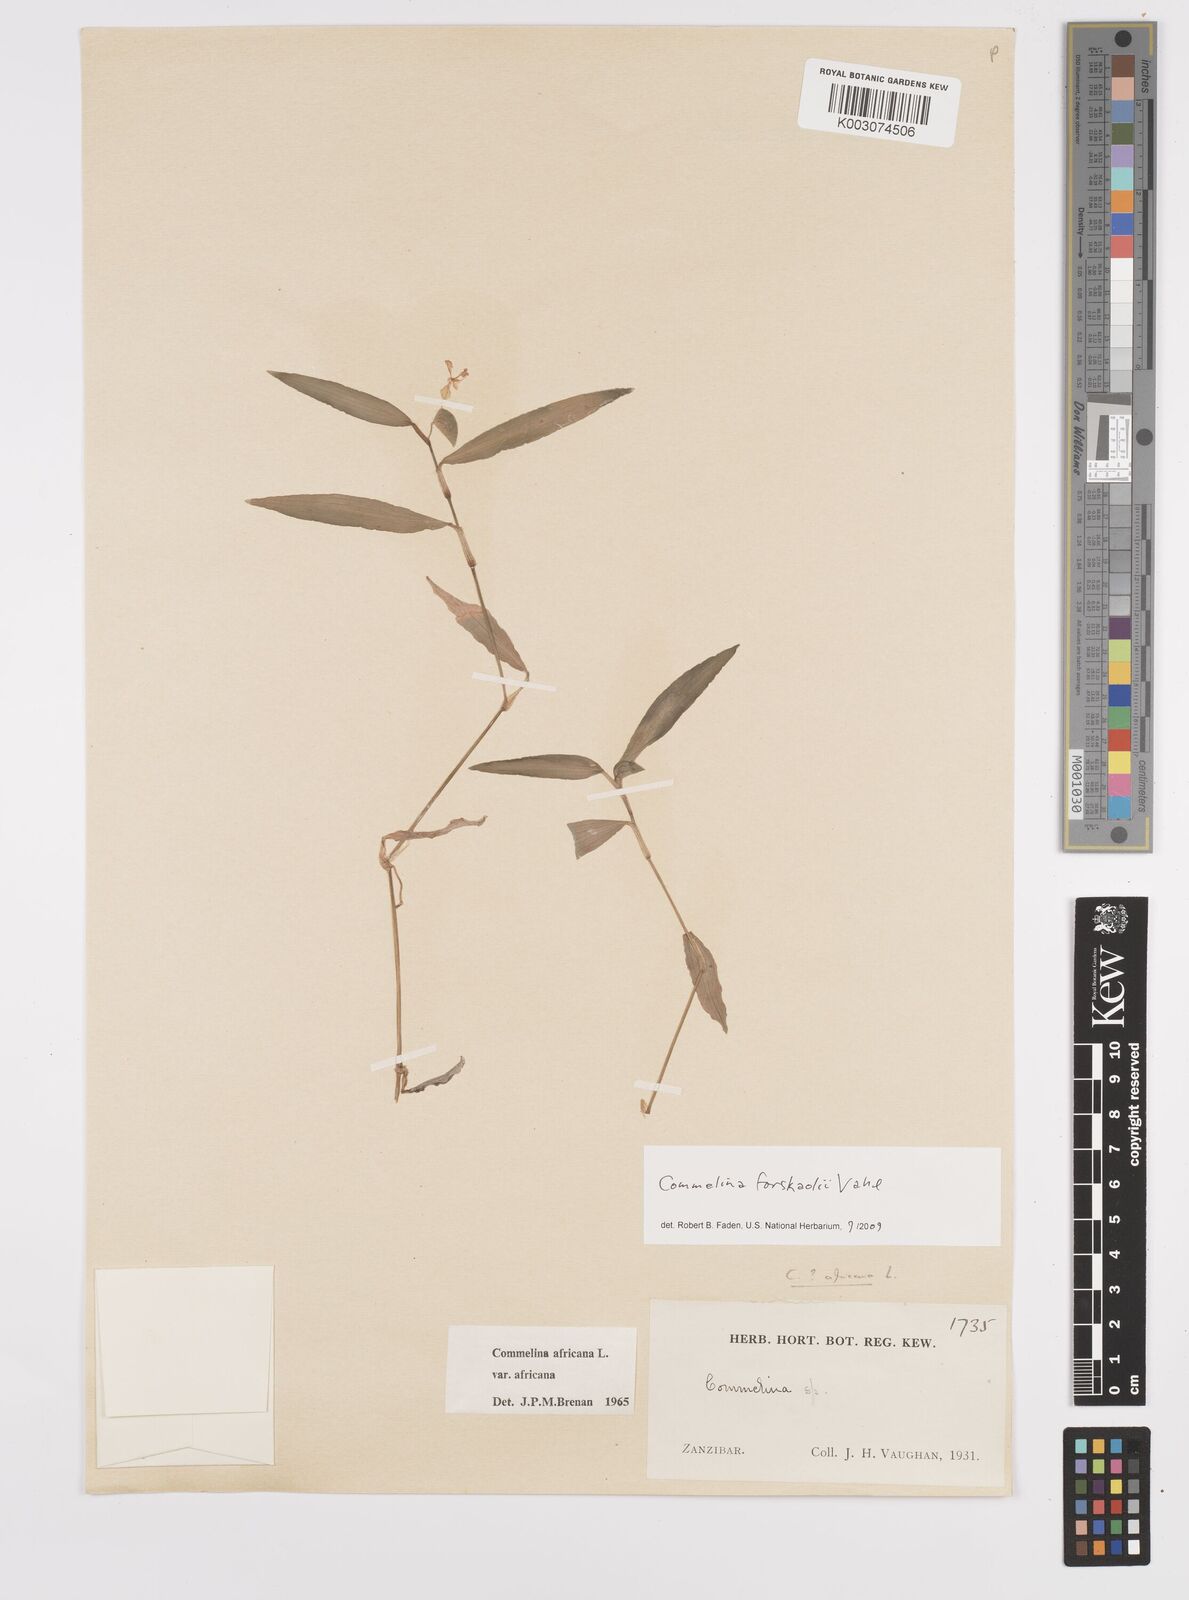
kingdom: Plantae
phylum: Tracheophyta
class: Liliopsida
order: Commelinales
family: Commelinaceae
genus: Commelina
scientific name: Commelina forskaolii
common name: Rat's ear
